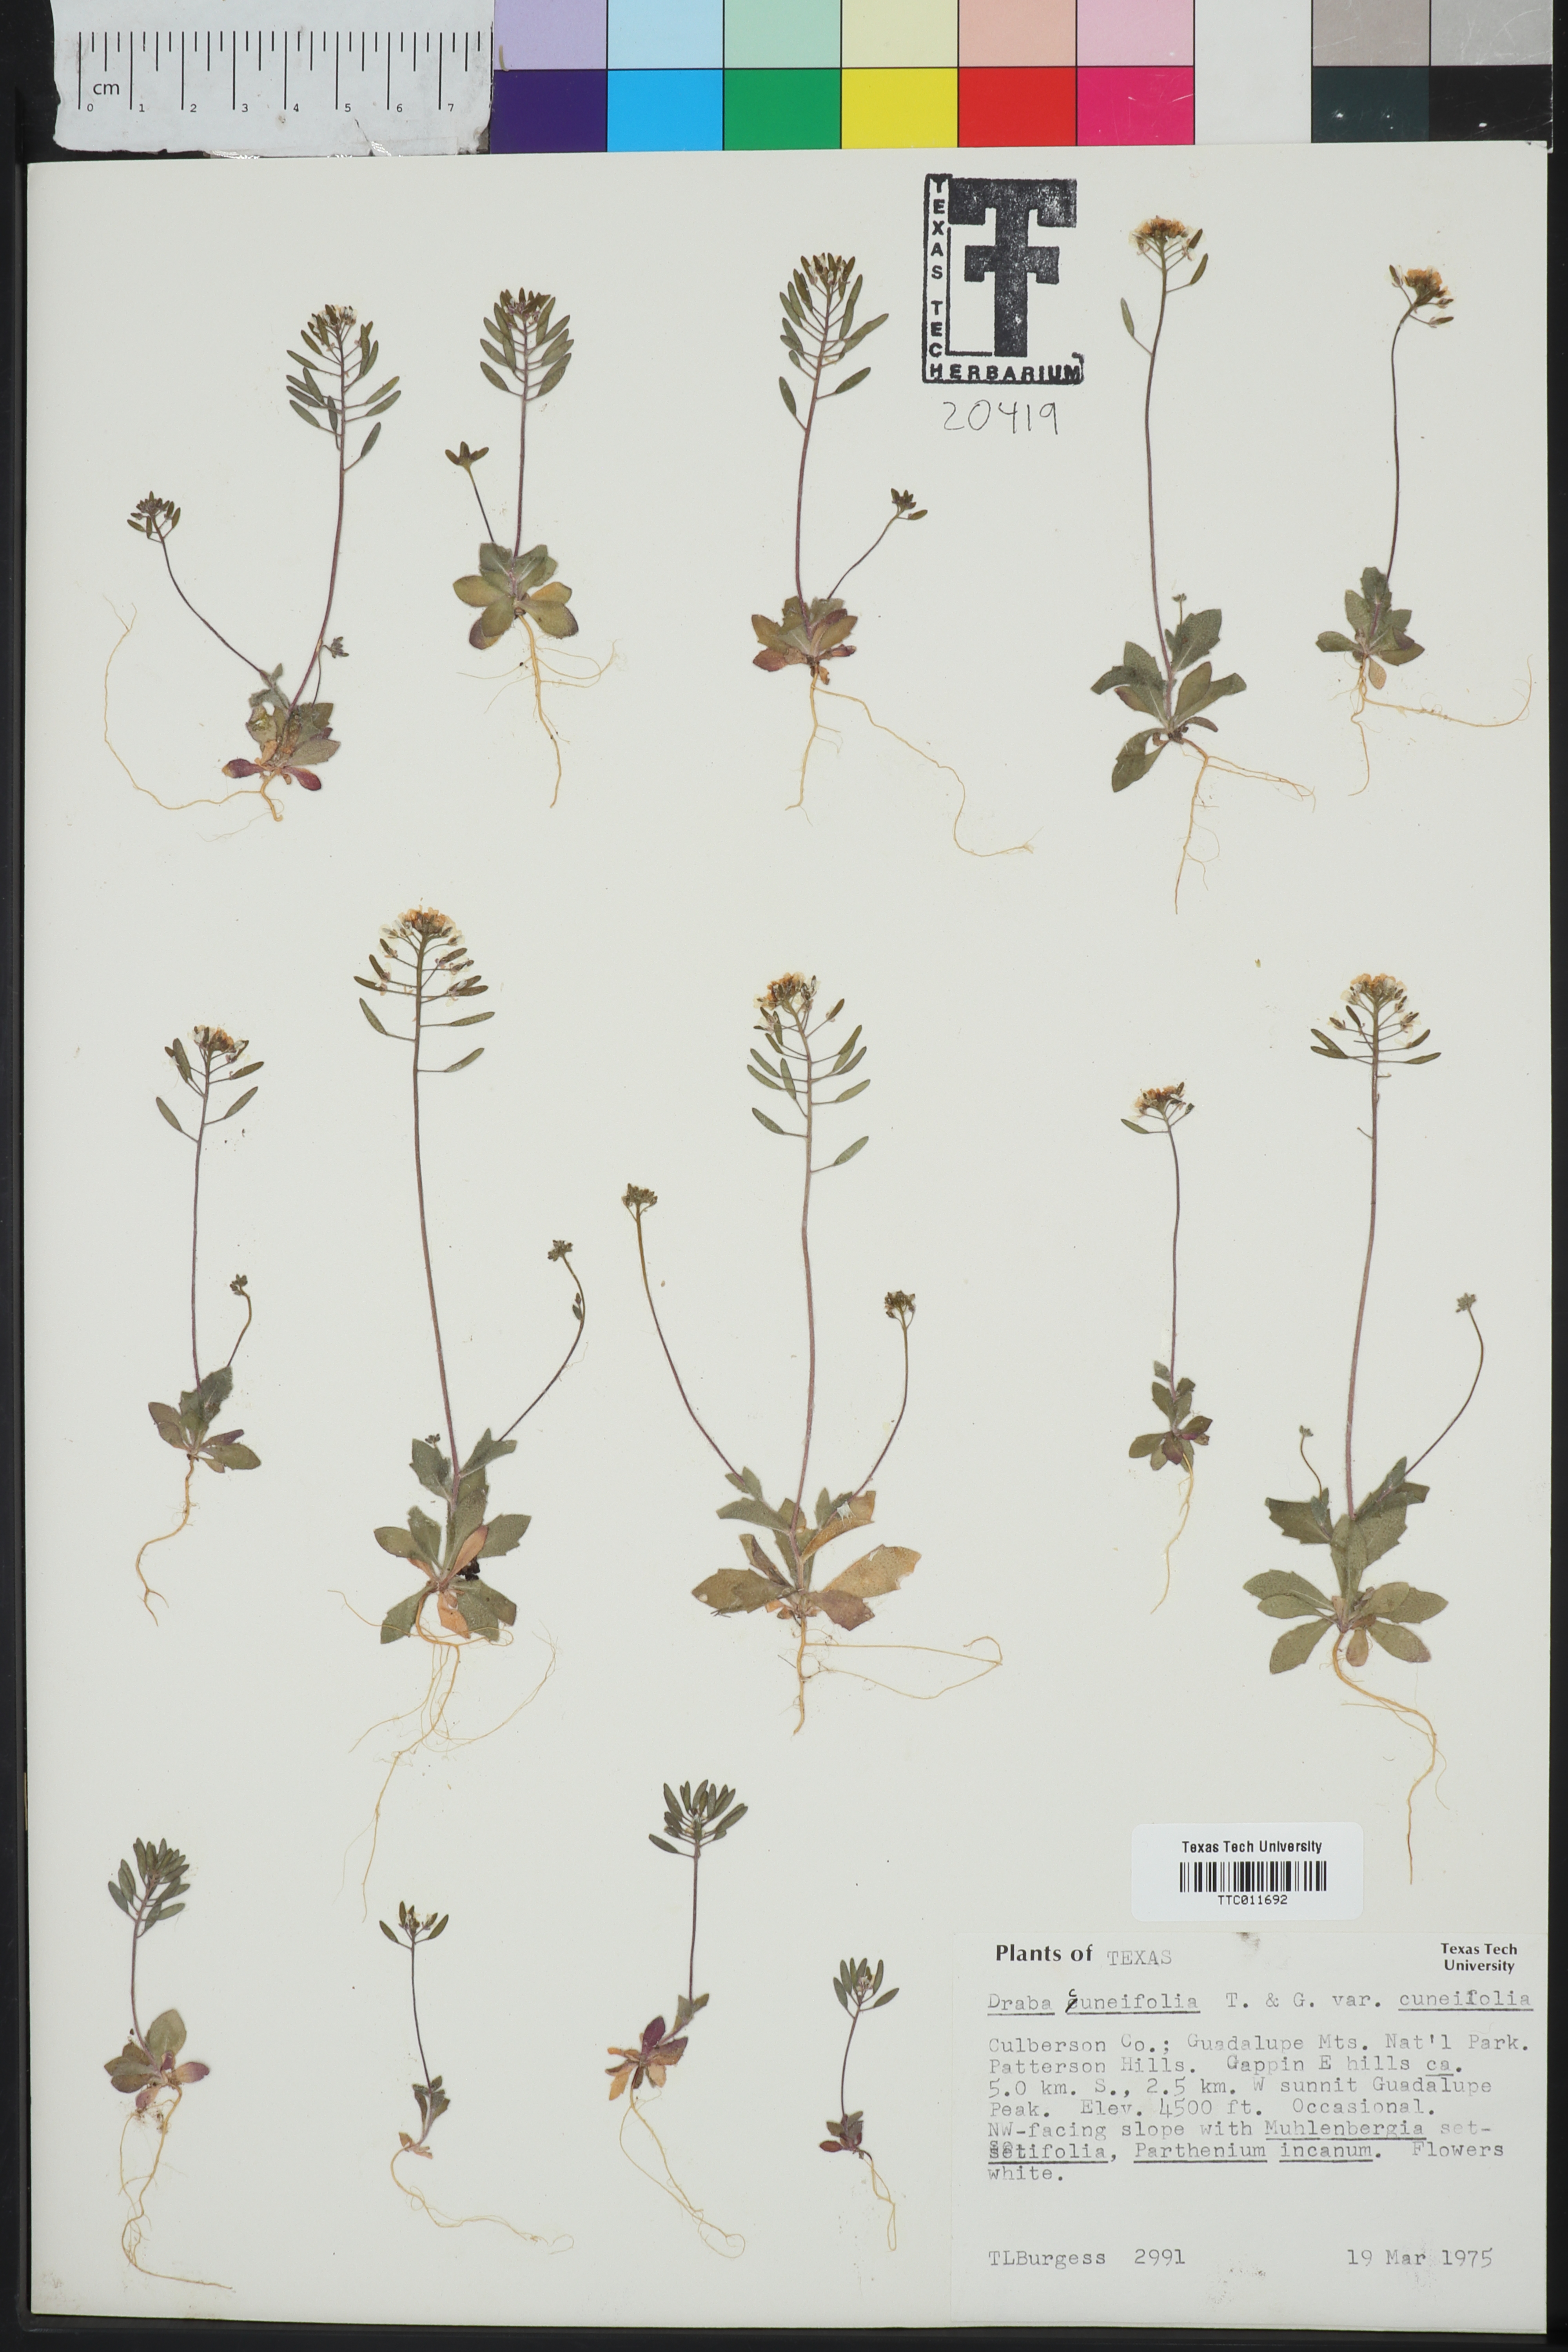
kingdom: Plantae
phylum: Tracheophyta
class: Magnoliopsida
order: Brassicales
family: Brassicaceae
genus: Tomostima
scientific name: Tomostima cuneifolia
